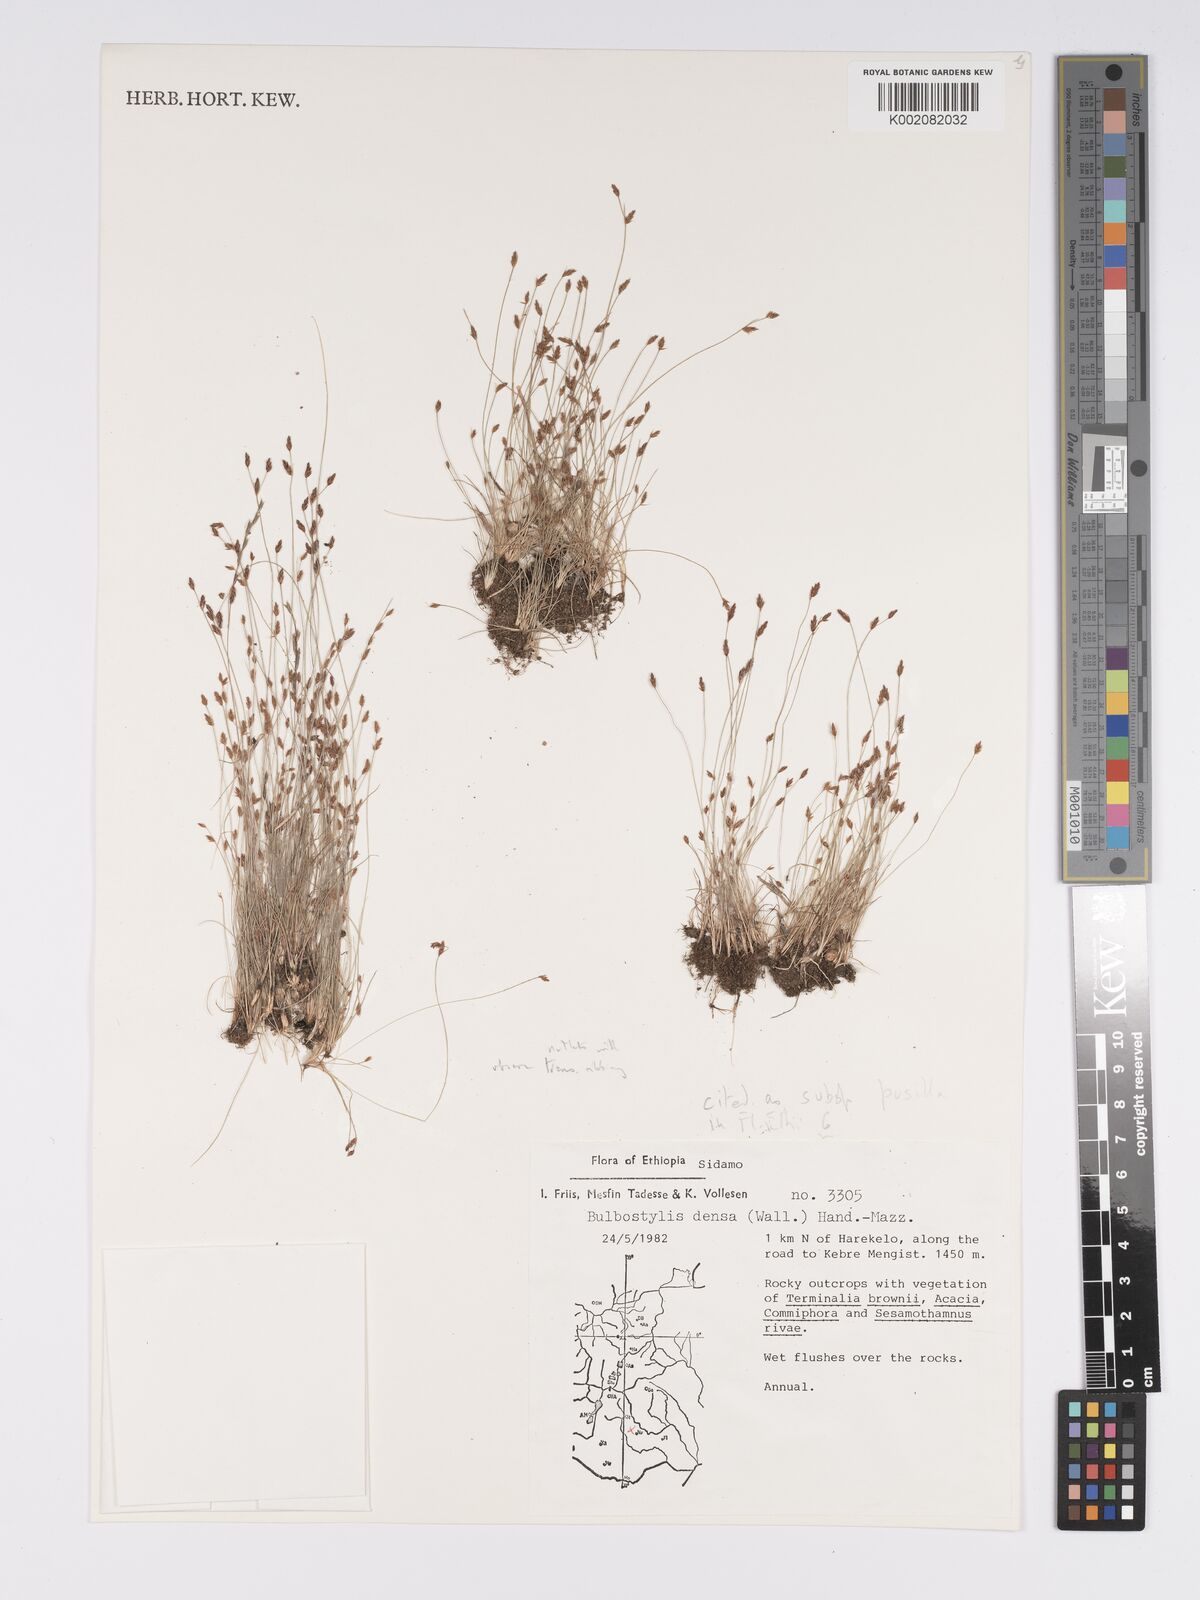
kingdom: Plantae
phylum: Tracheophyta
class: Liliopsida
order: Poales
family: Cyperaceae
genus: Bulbostylis
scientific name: Bulbostylis pusilla
